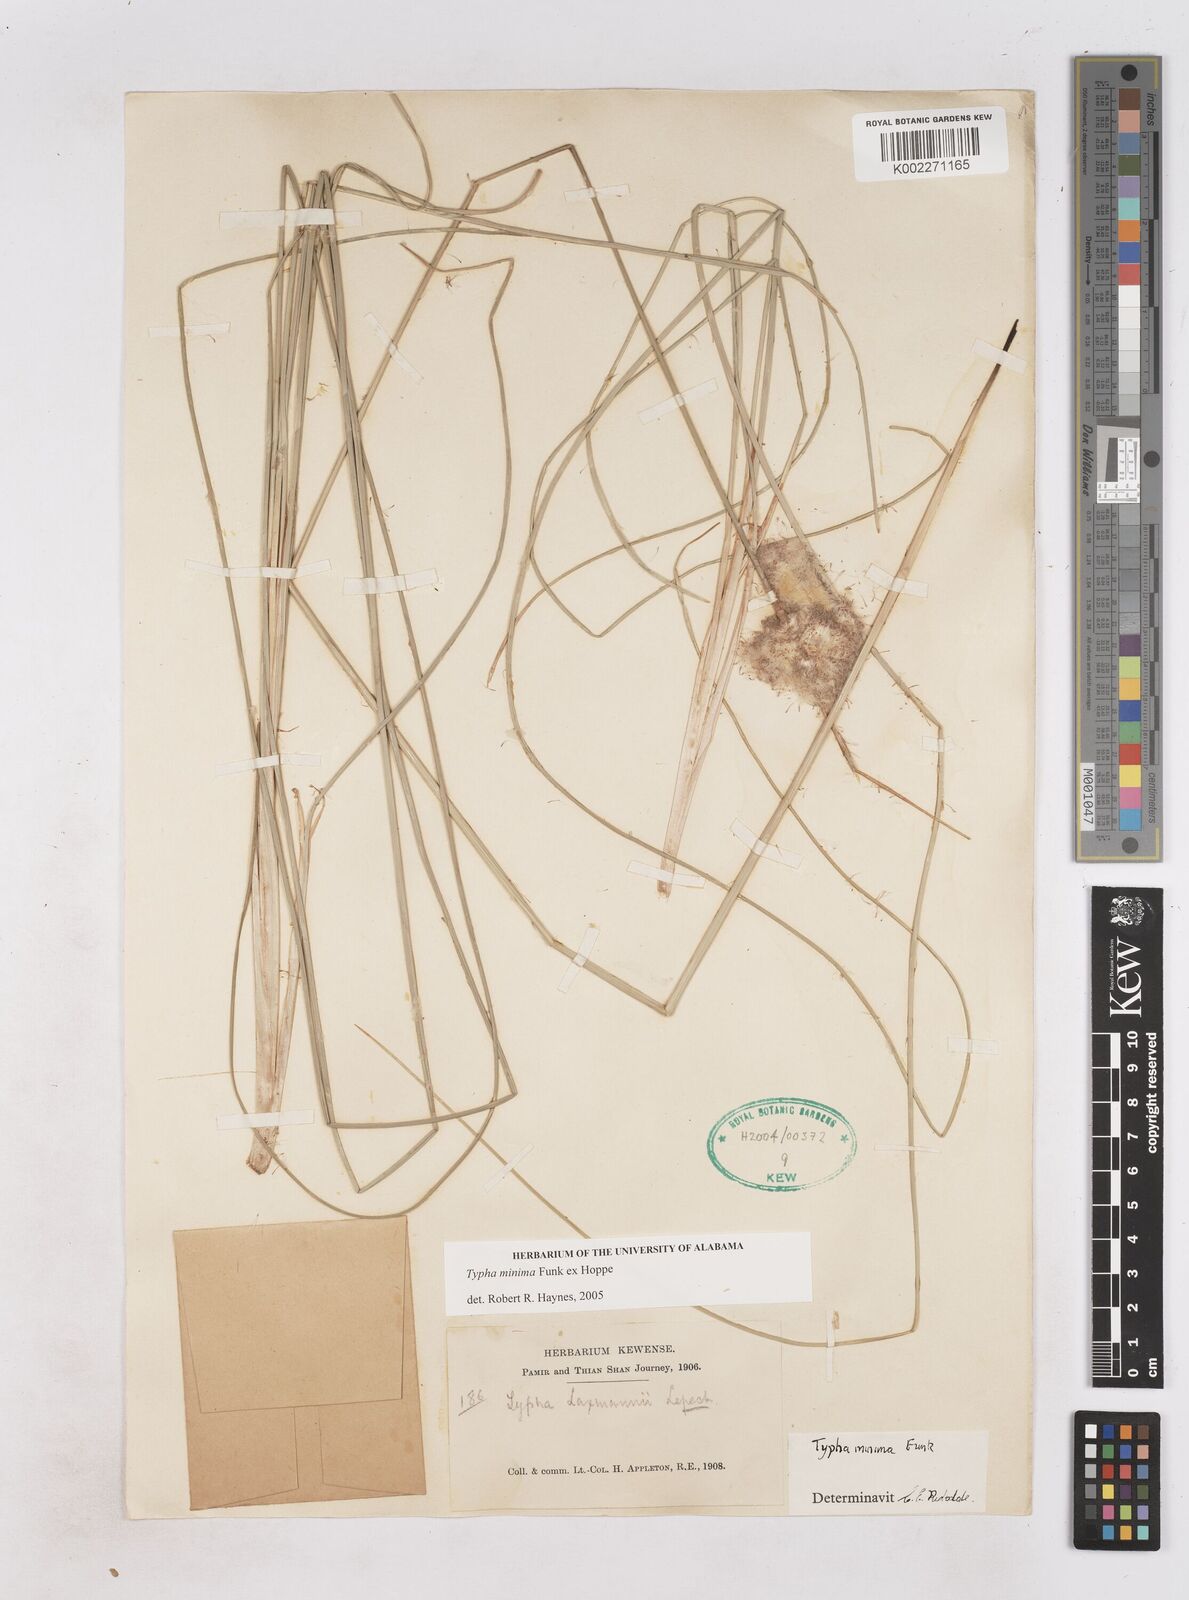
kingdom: Plantae
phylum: Tracheophyta
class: Liliopsida
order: Poales
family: Typhaceae
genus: Typha
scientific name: Typha
